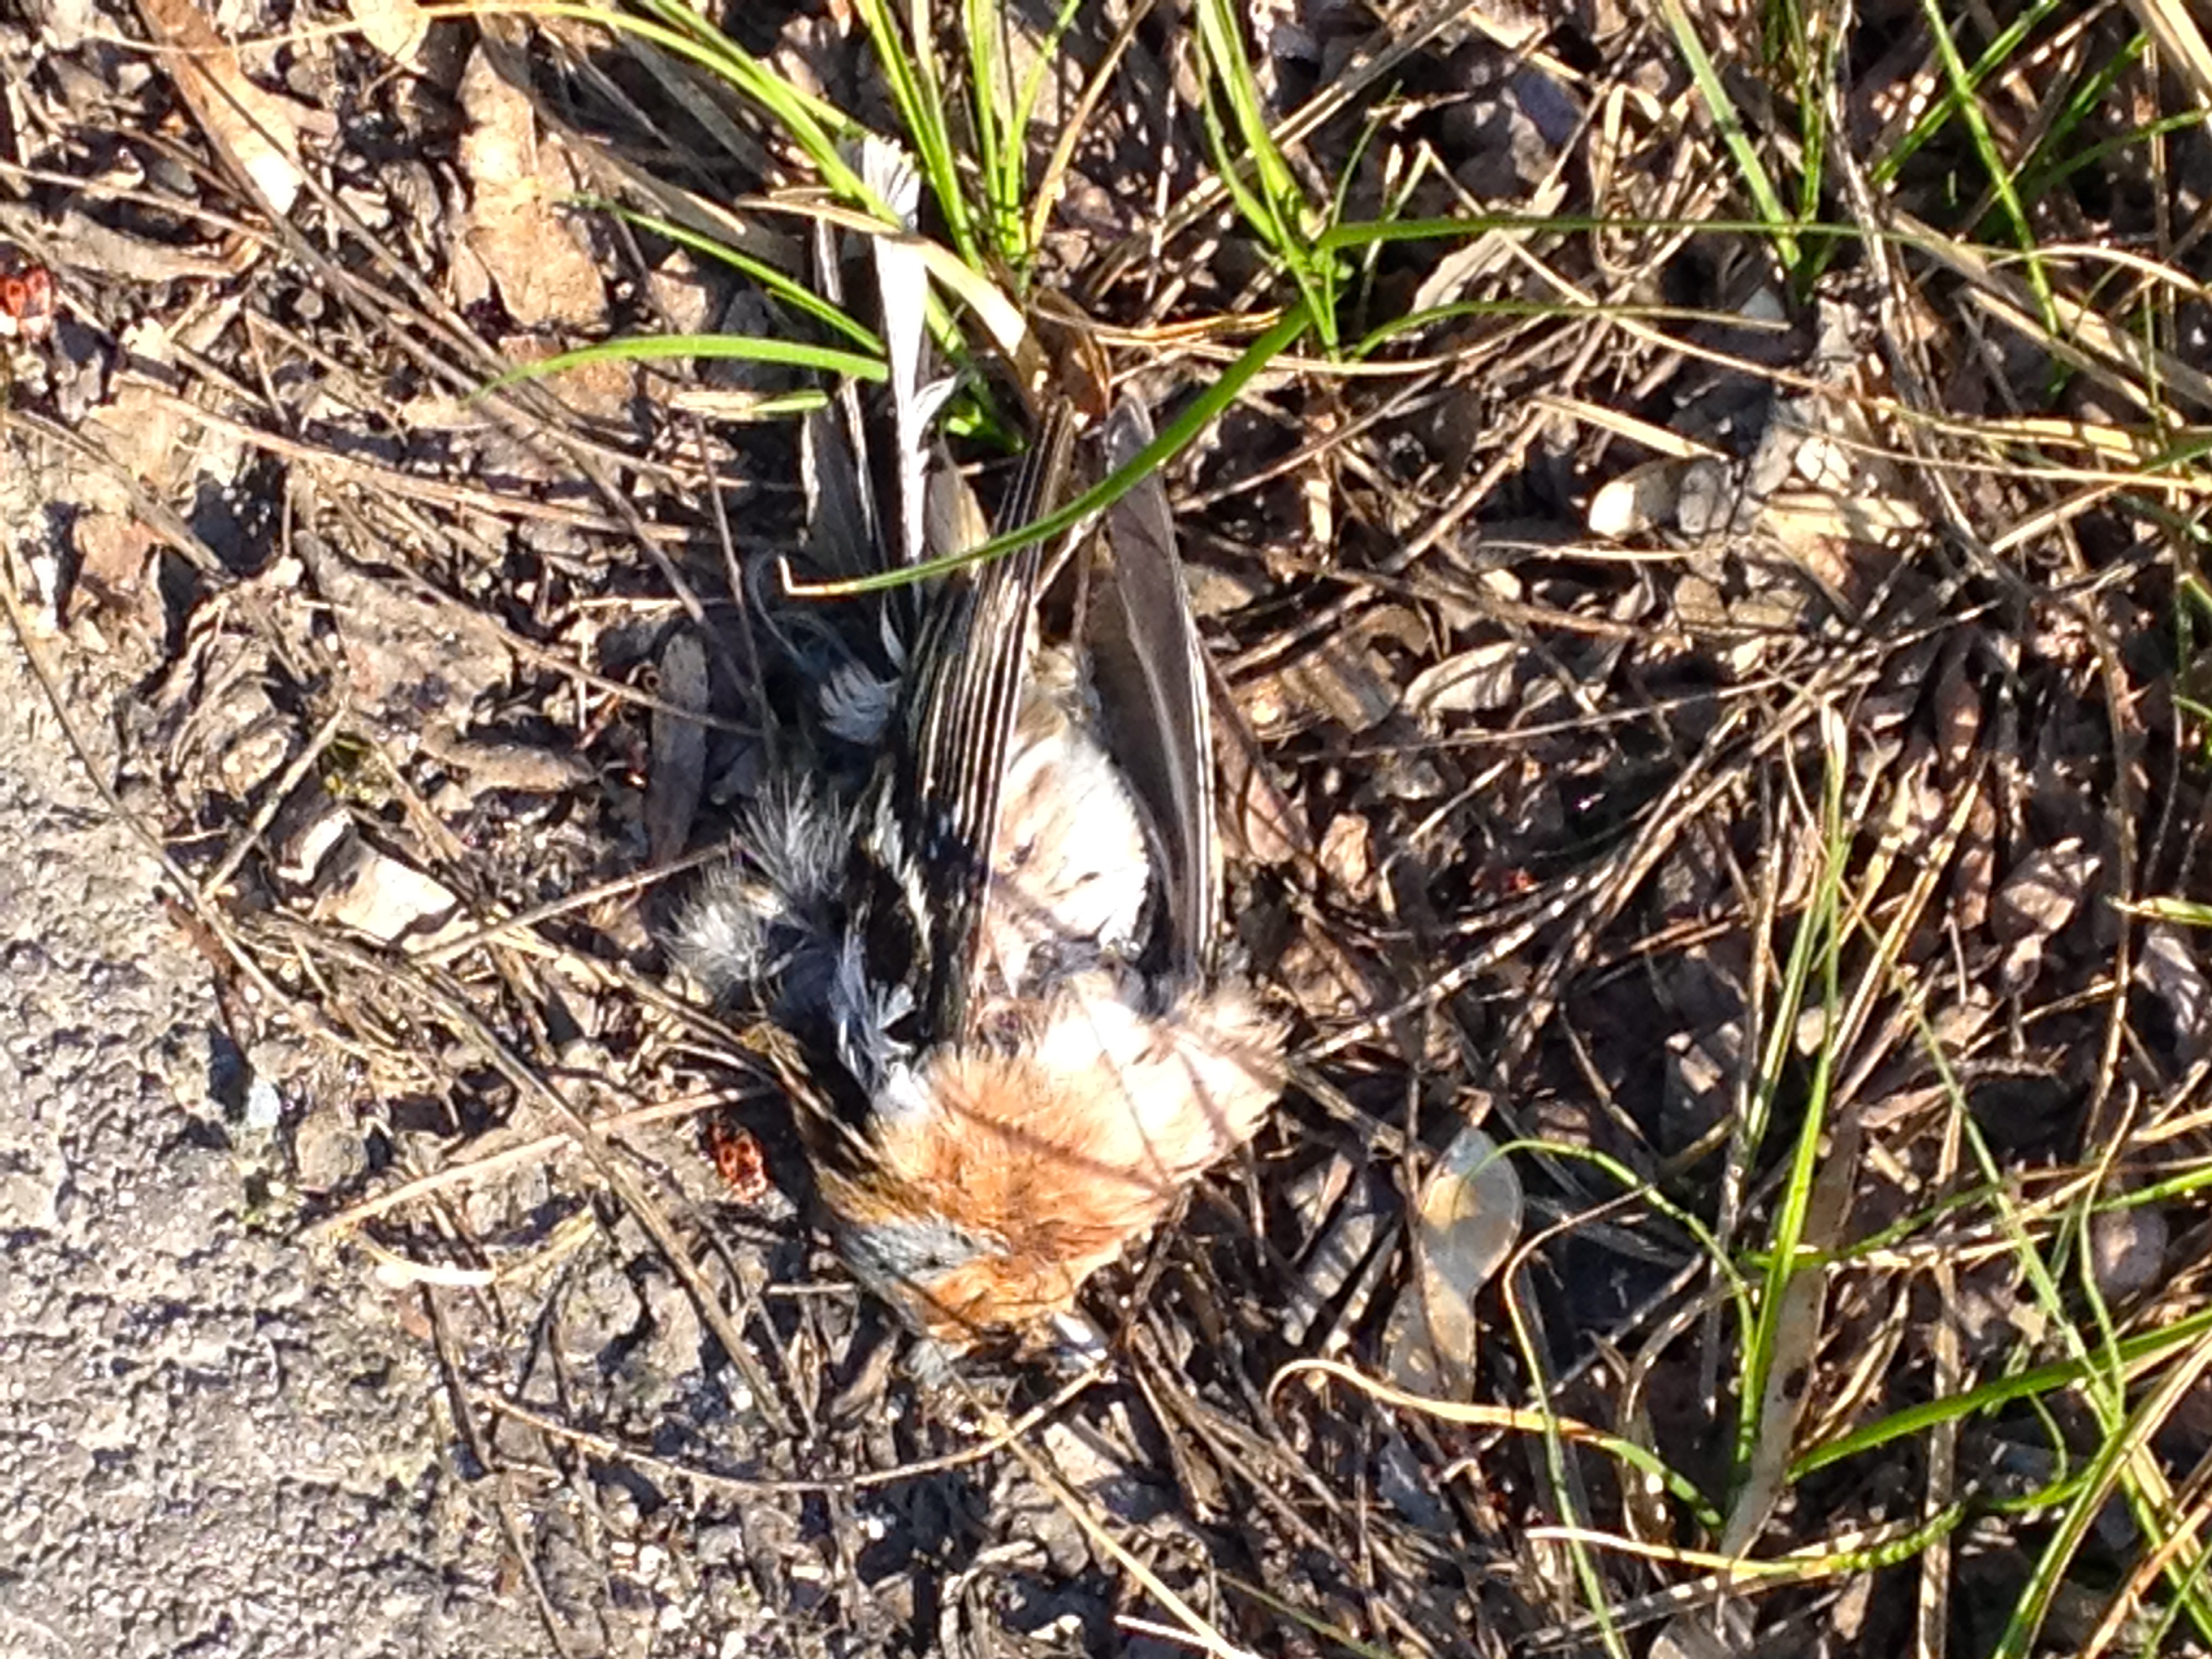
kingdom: Animalia
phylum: Chordata
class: Aves
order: Passeriformes
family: Fringillidae
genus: Fringilla
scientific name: Fringilla coelebs
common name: Common chaffinch
